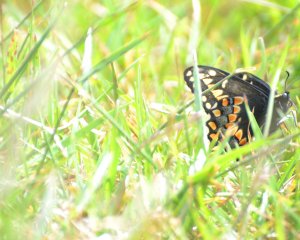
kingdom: Animalia
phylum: Arthropoda
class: Insecta
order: Lepidoptera
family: Papilionidae
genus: Papilio
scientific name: Papilio brevicauda
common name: Short-tailed Swallowtail
